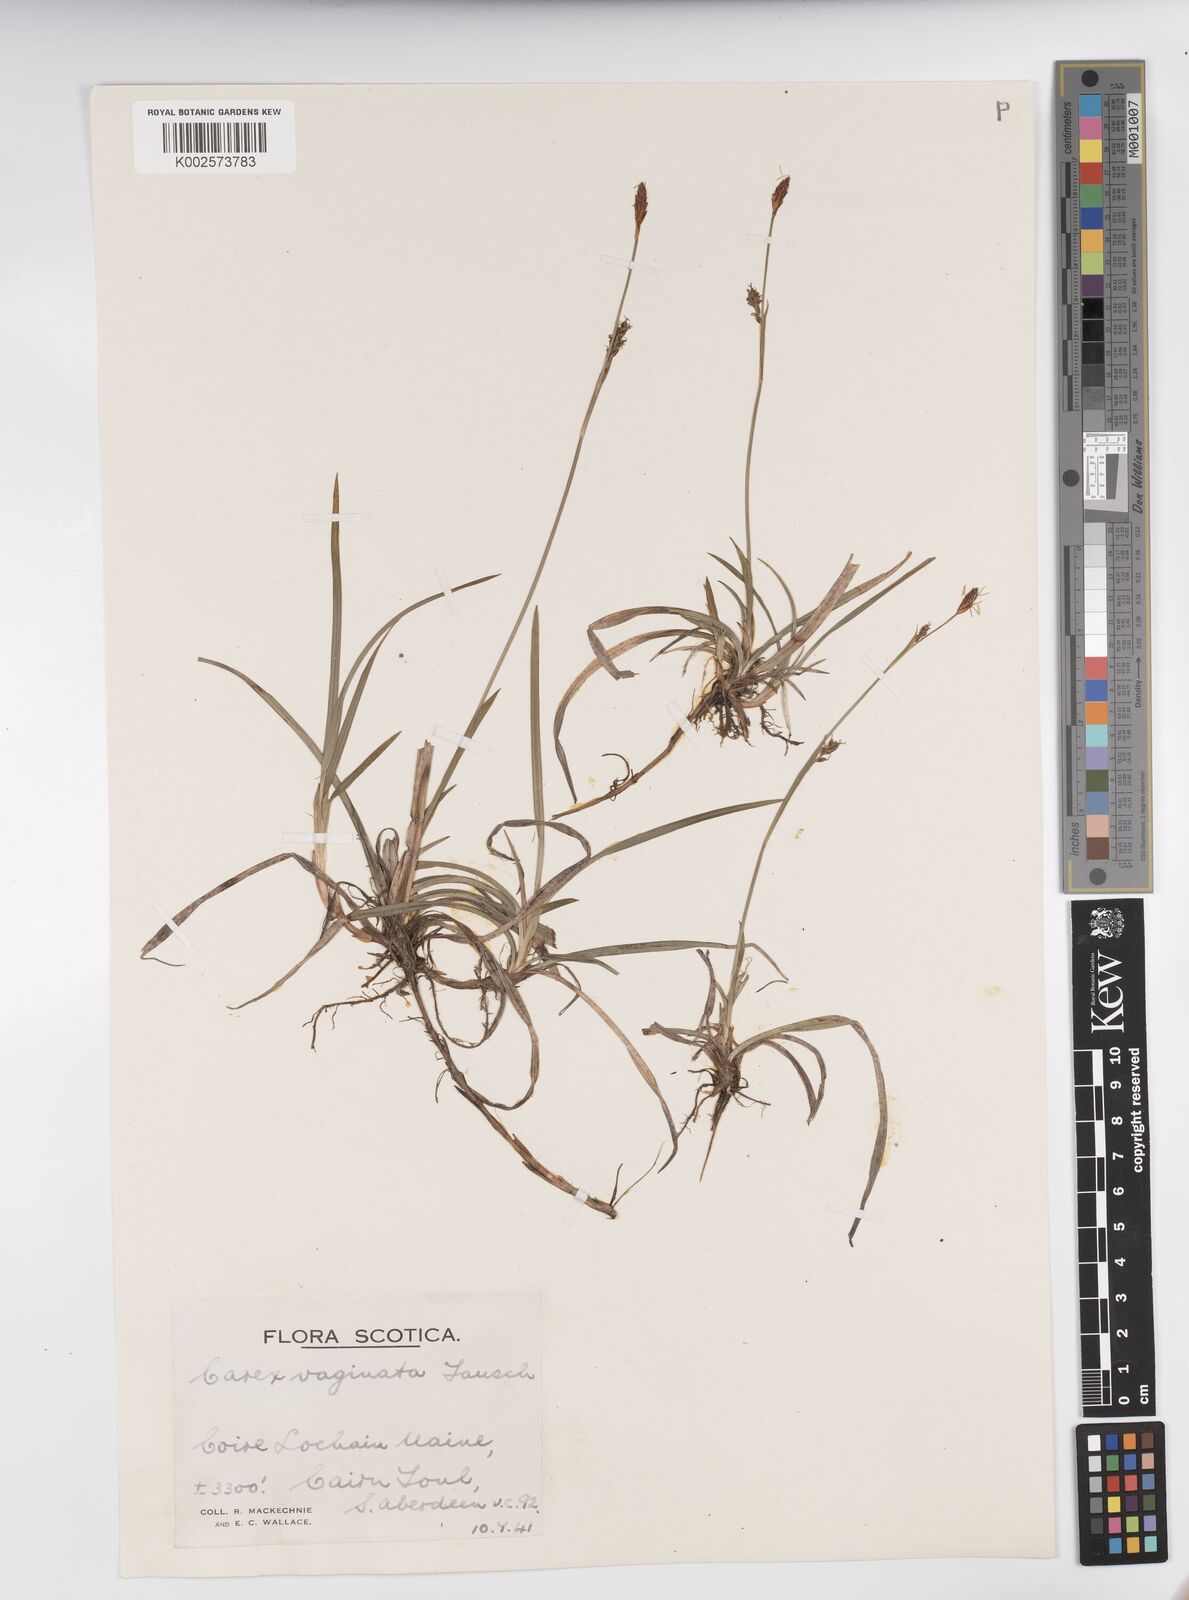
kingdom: Plantae
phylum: Tracheophyta
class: Liliopsida
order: Poales
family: Cyperaceae
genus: Carex
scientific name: Carex vaginata
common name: Sheathed sedge
